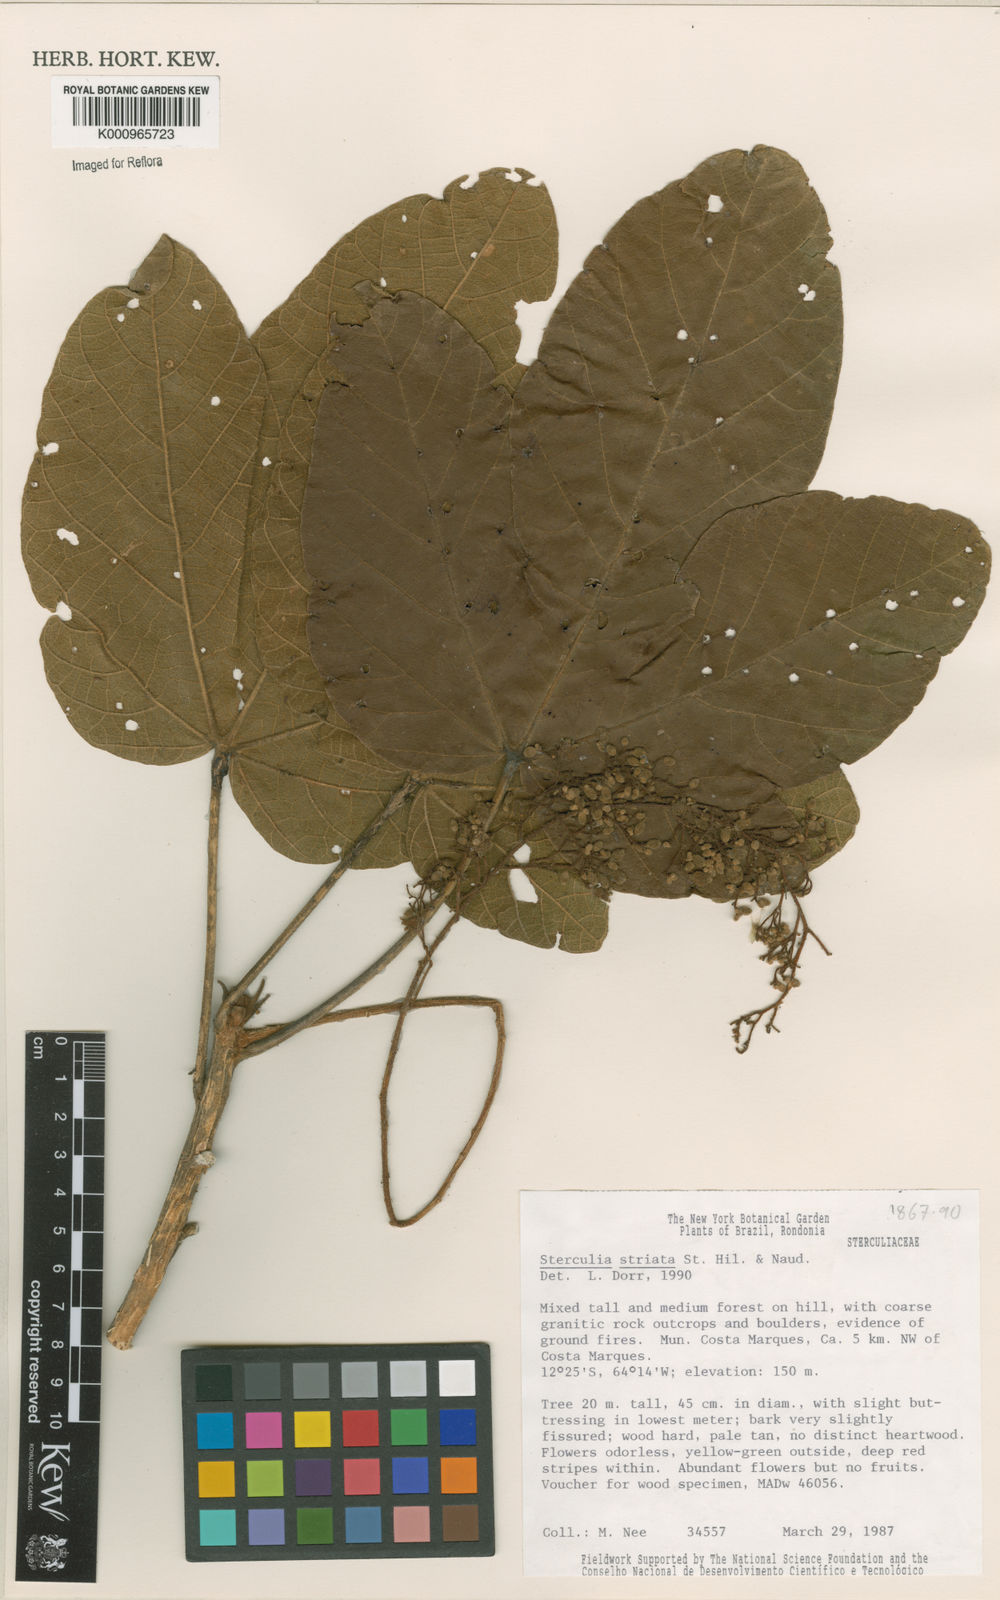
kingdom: Plantae
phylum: Tracheophyta
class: Magnoliopsida
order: Malvales
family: Malvaceae
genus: Sterculia
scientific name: Sterculia striata
